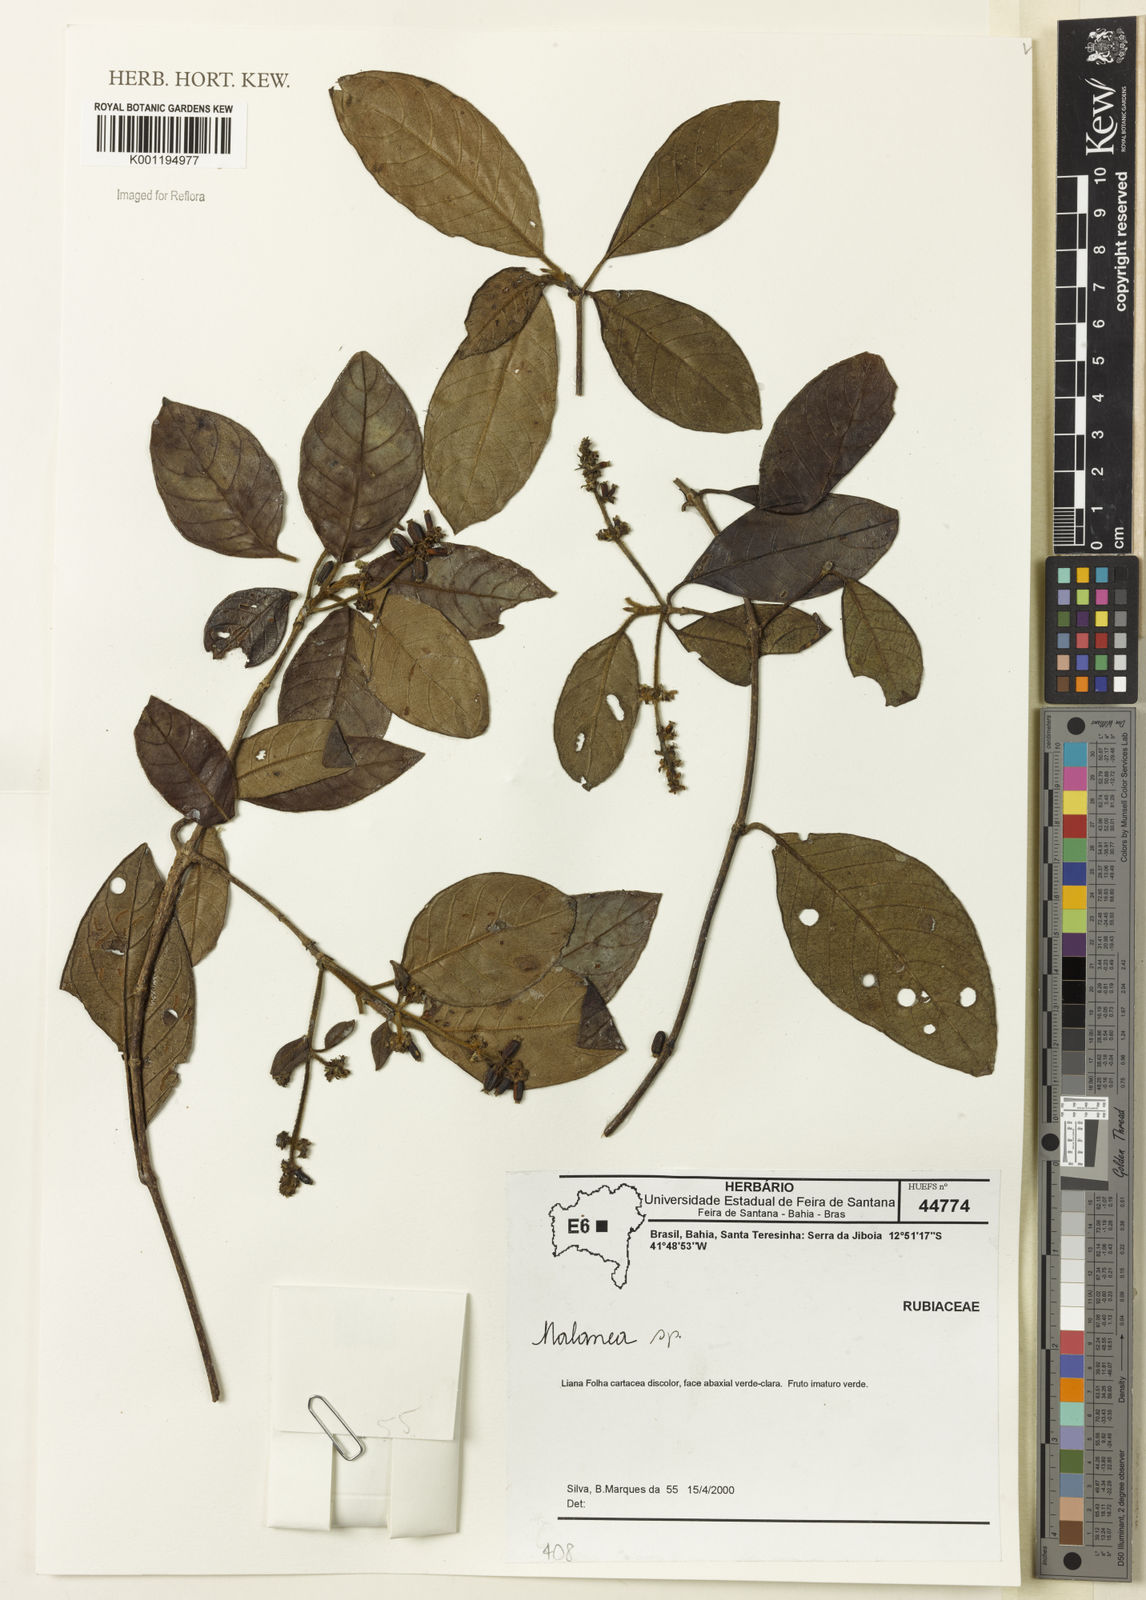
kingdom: Plantae
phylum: Tracheophyta
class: Magnoliopsida
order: Gentianales
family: Rubiaceae
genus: Malanea
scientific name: Malanea
